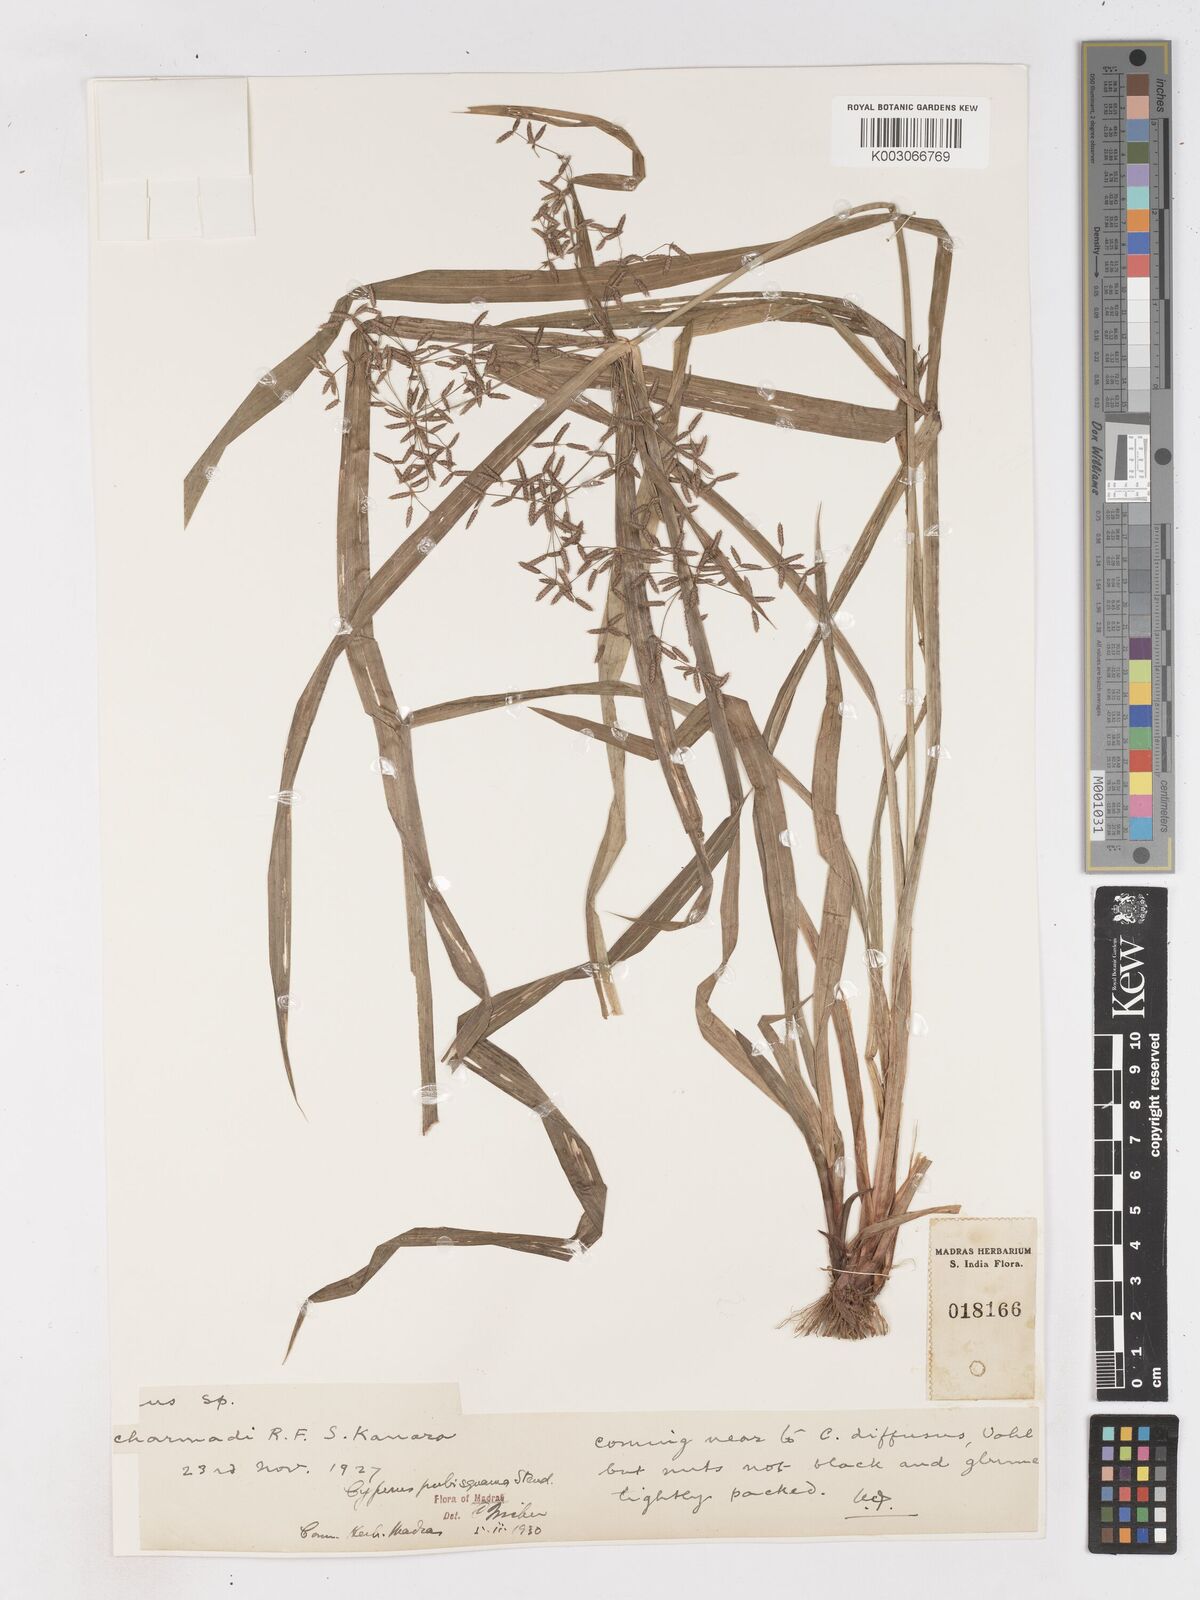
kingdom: Plantae
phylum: Tracheophyta
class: Liliopsida
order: Poales
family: Cyperaceae
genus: Cyperus
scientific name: Cyperus diffusus
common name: Dwarf umbrella grass
